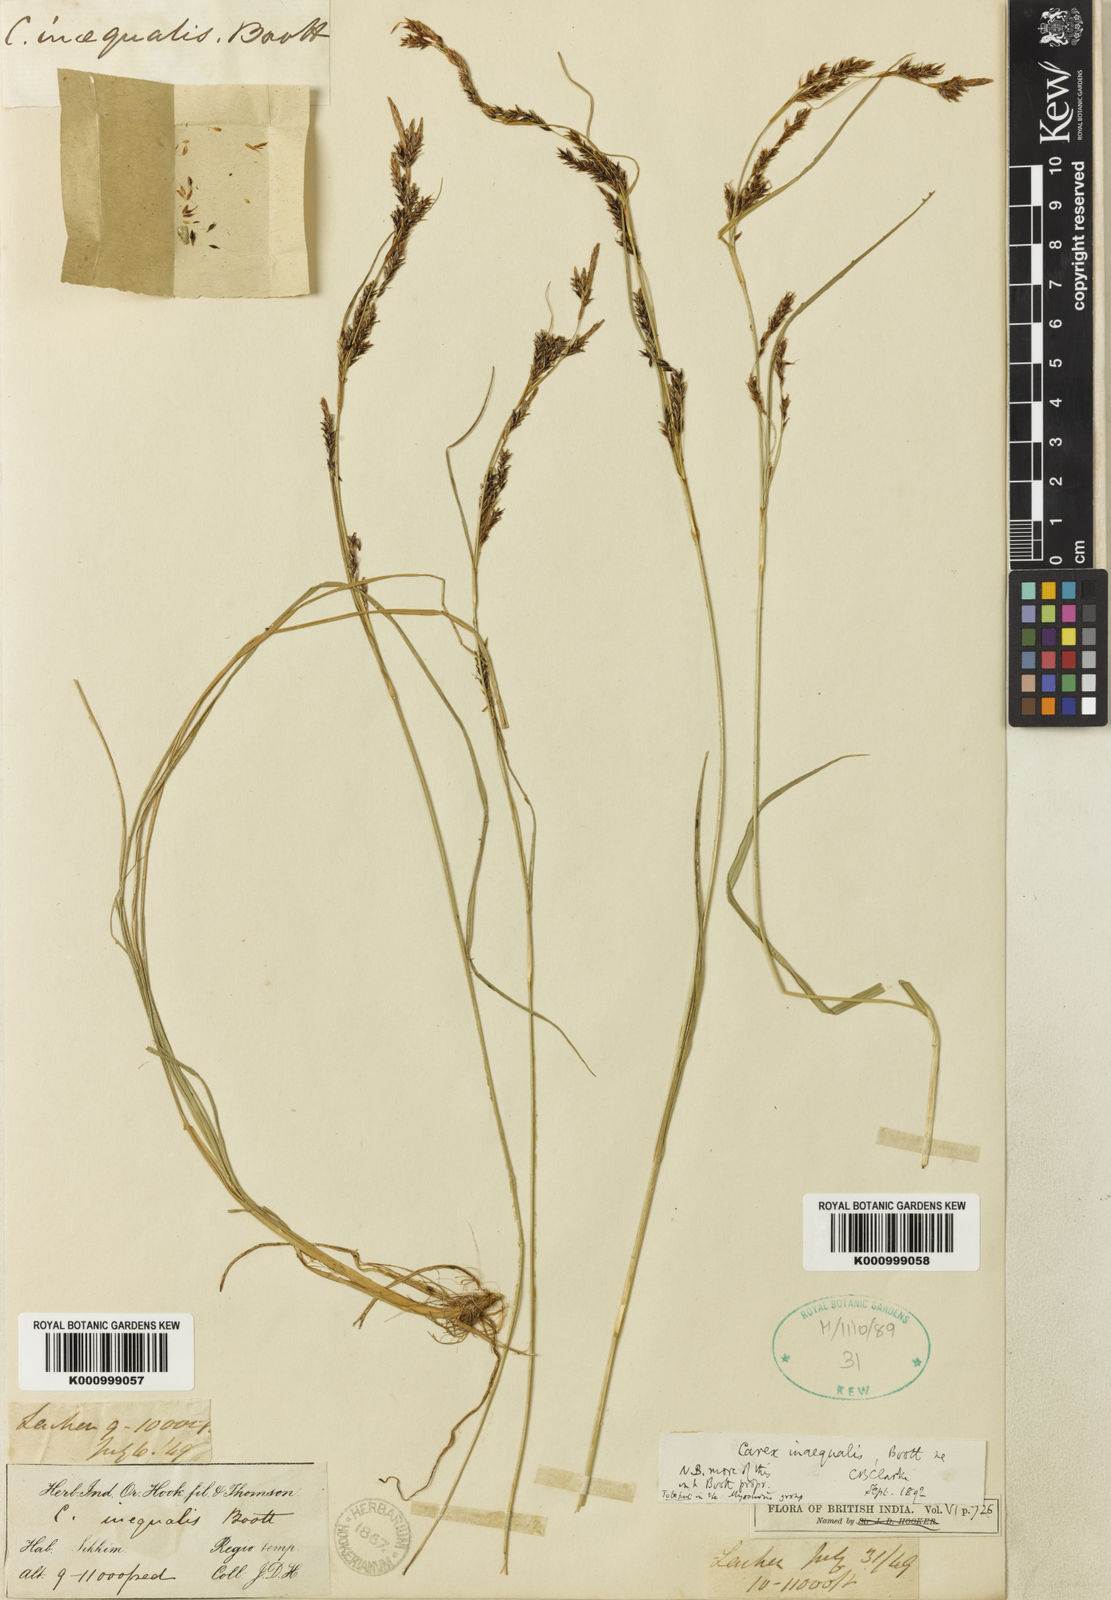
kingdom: Plantae
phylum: Tracheophyta
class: Liliopsida
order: Poales
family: Cyperaceae
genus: Carex
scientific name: Carex anomoea
